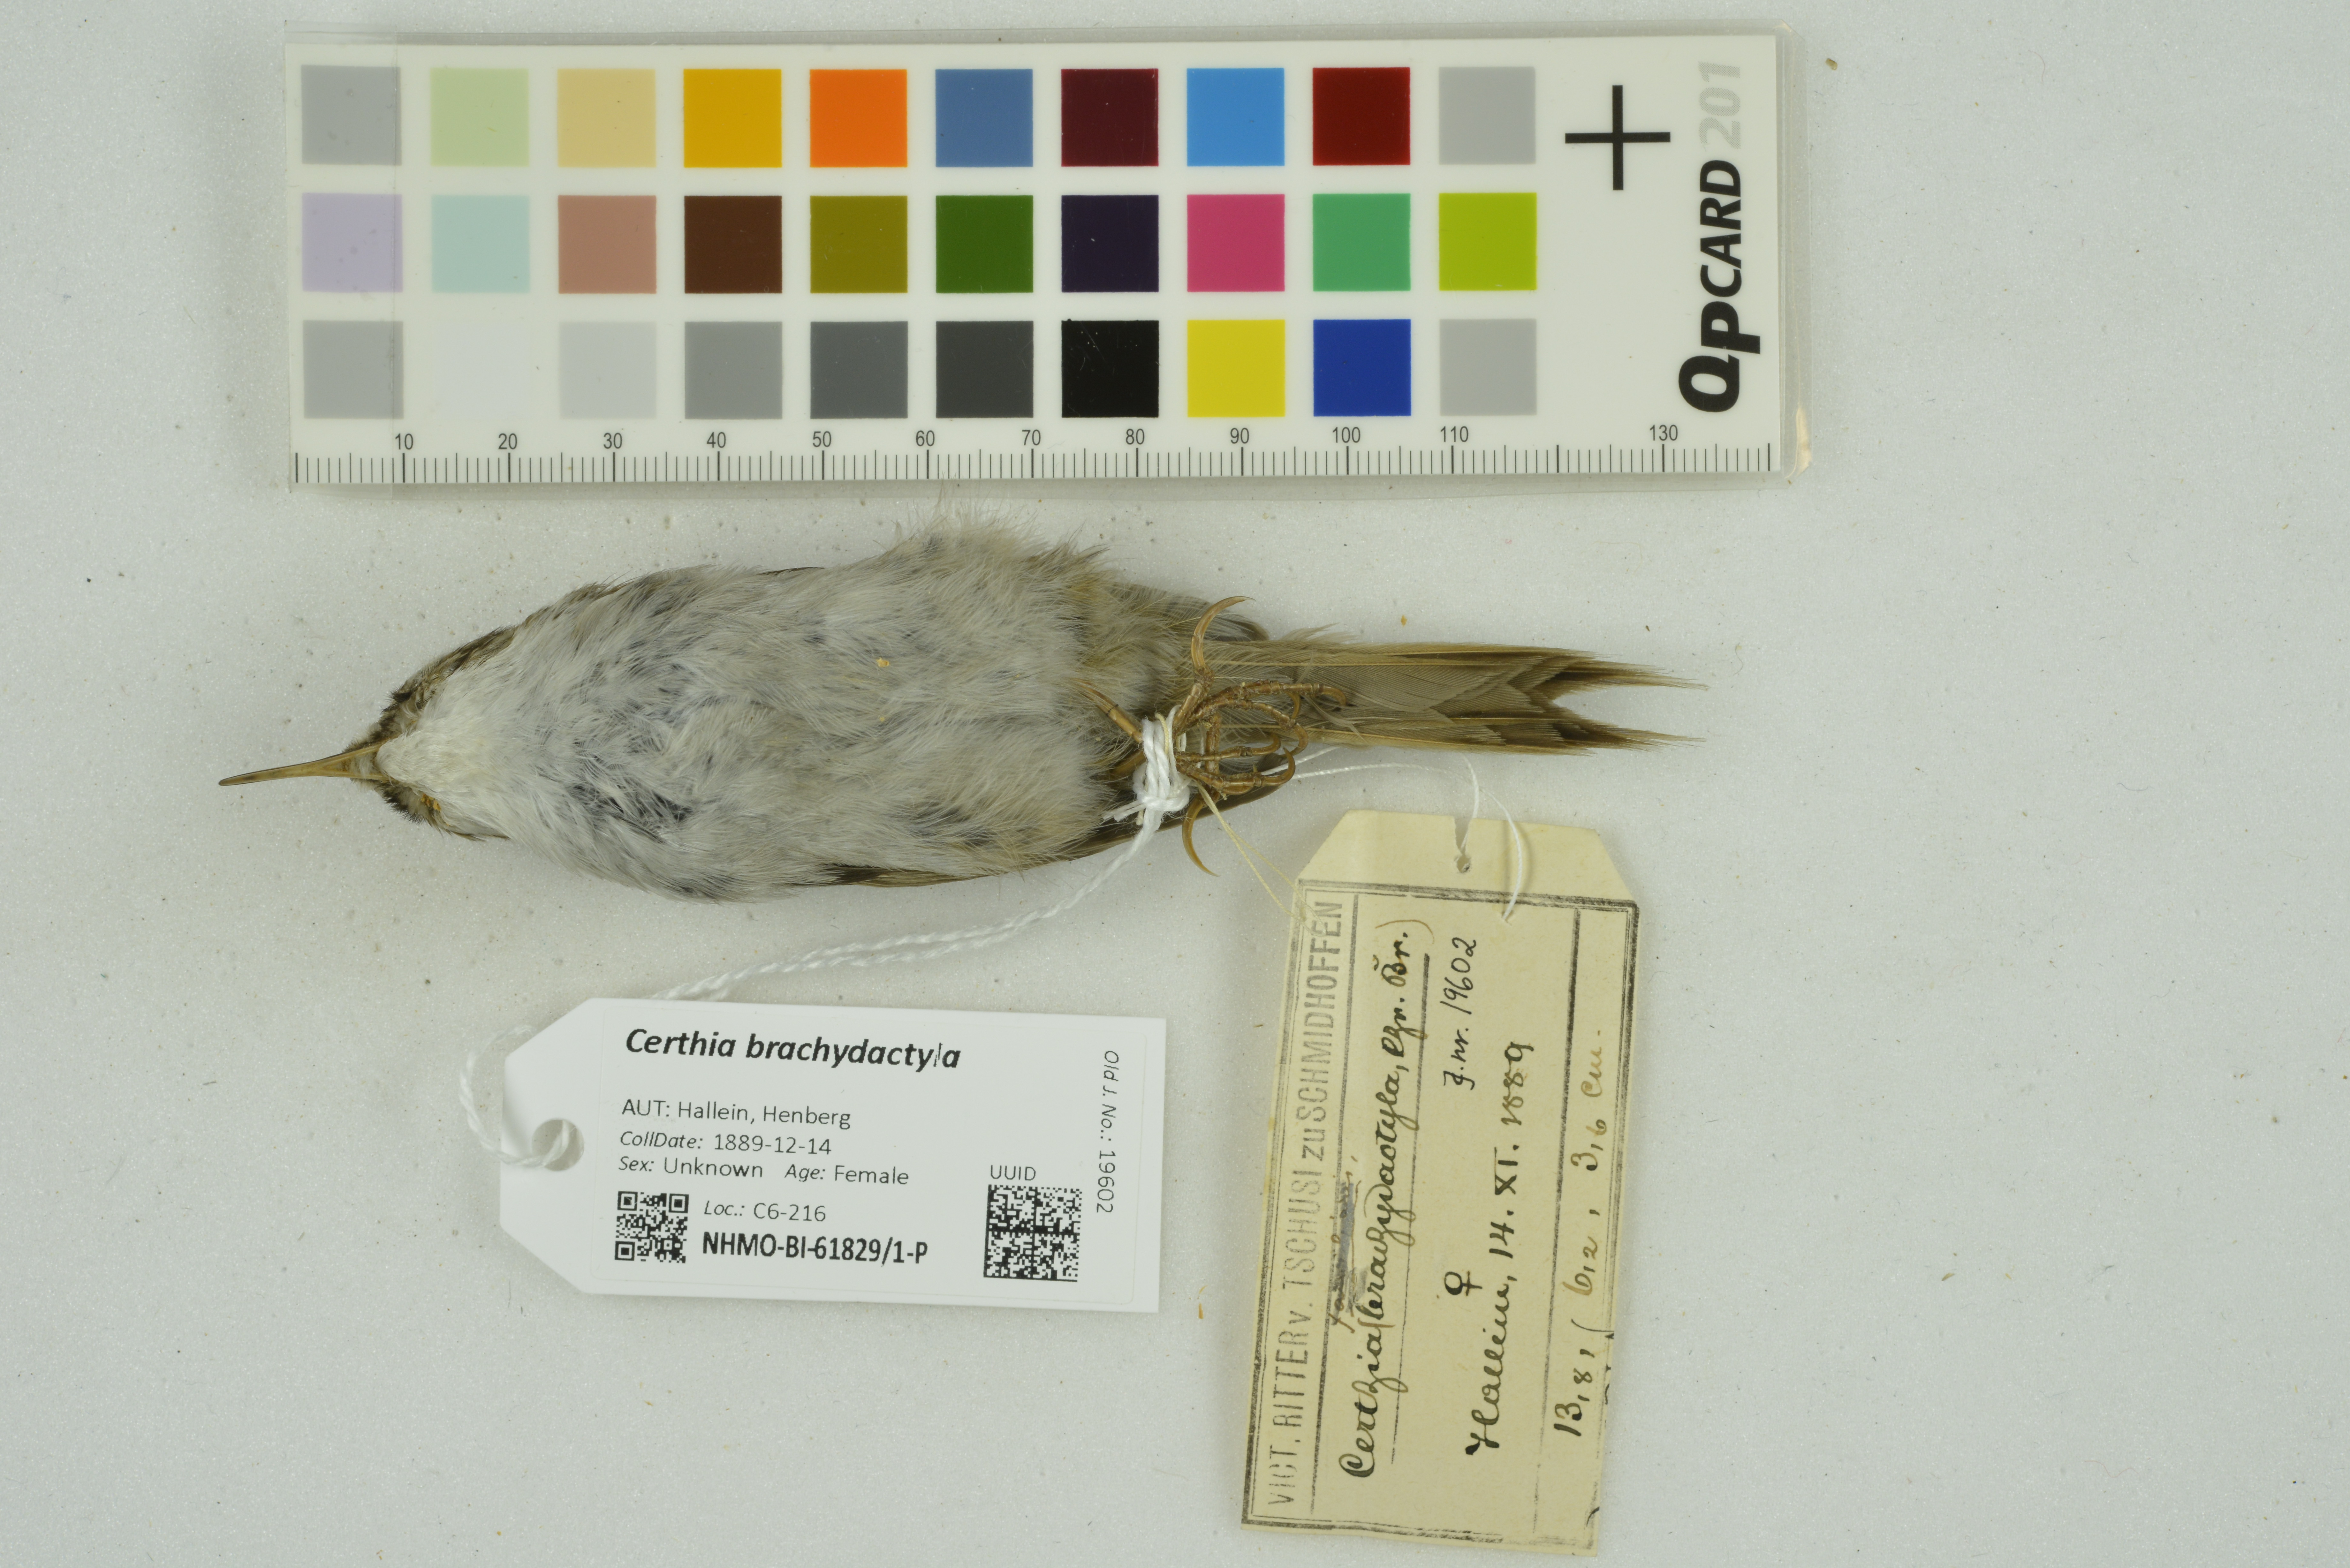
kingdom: Animalia
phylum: Chordata
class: Aves
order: Passeriformes
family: Certhiidae
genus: Certhia
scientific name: Certhia brachydactyla
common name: Short-toed treecreeper
